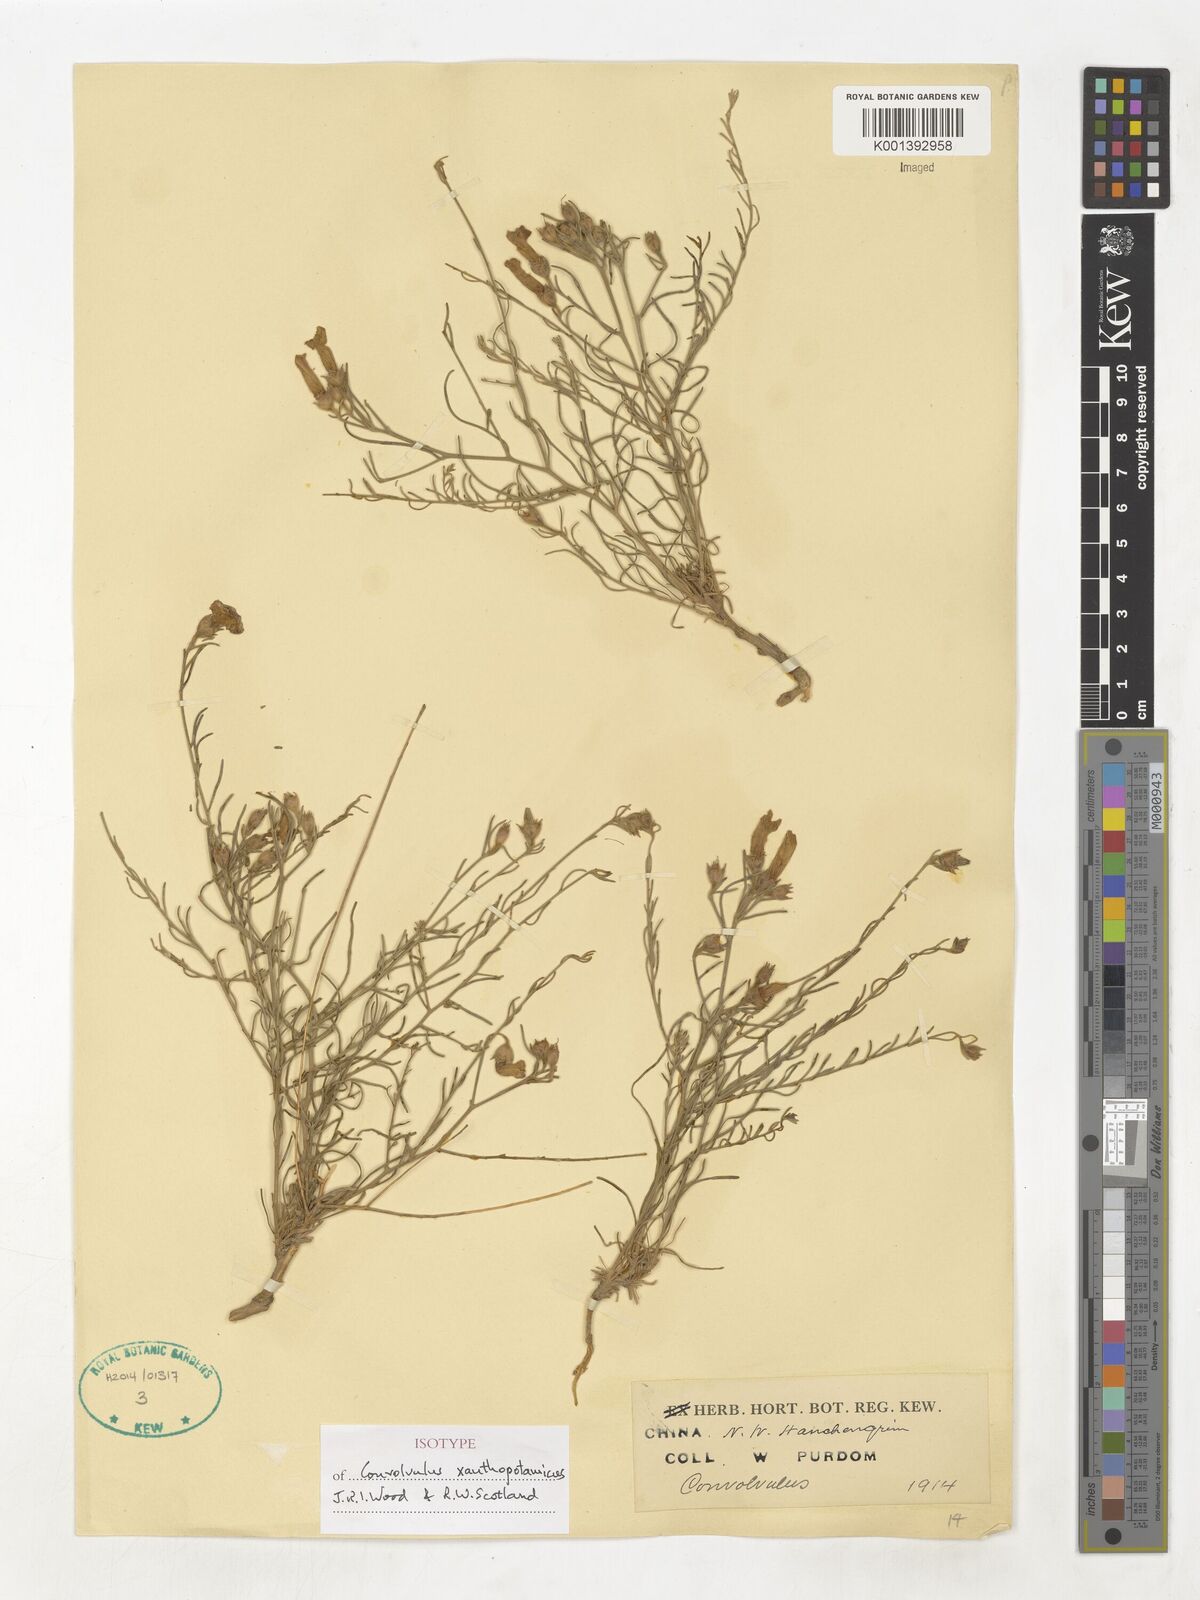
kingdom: Plantae
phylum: Tracheophyta
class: Magnoliopsida
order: Solanales
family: Convolvulaceae
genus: Convolvulus
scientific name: Convolvulus xanthopotamicus
